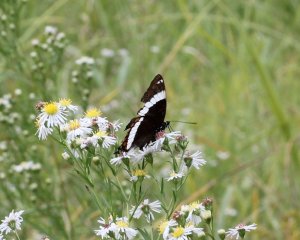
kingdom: Animalia
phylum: Arthropoda
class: Insecta
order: Lepidoptera
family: Nymphalidae
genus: Limenitis
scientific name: Limenitis arthemis
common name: Red-spotted Admiral
